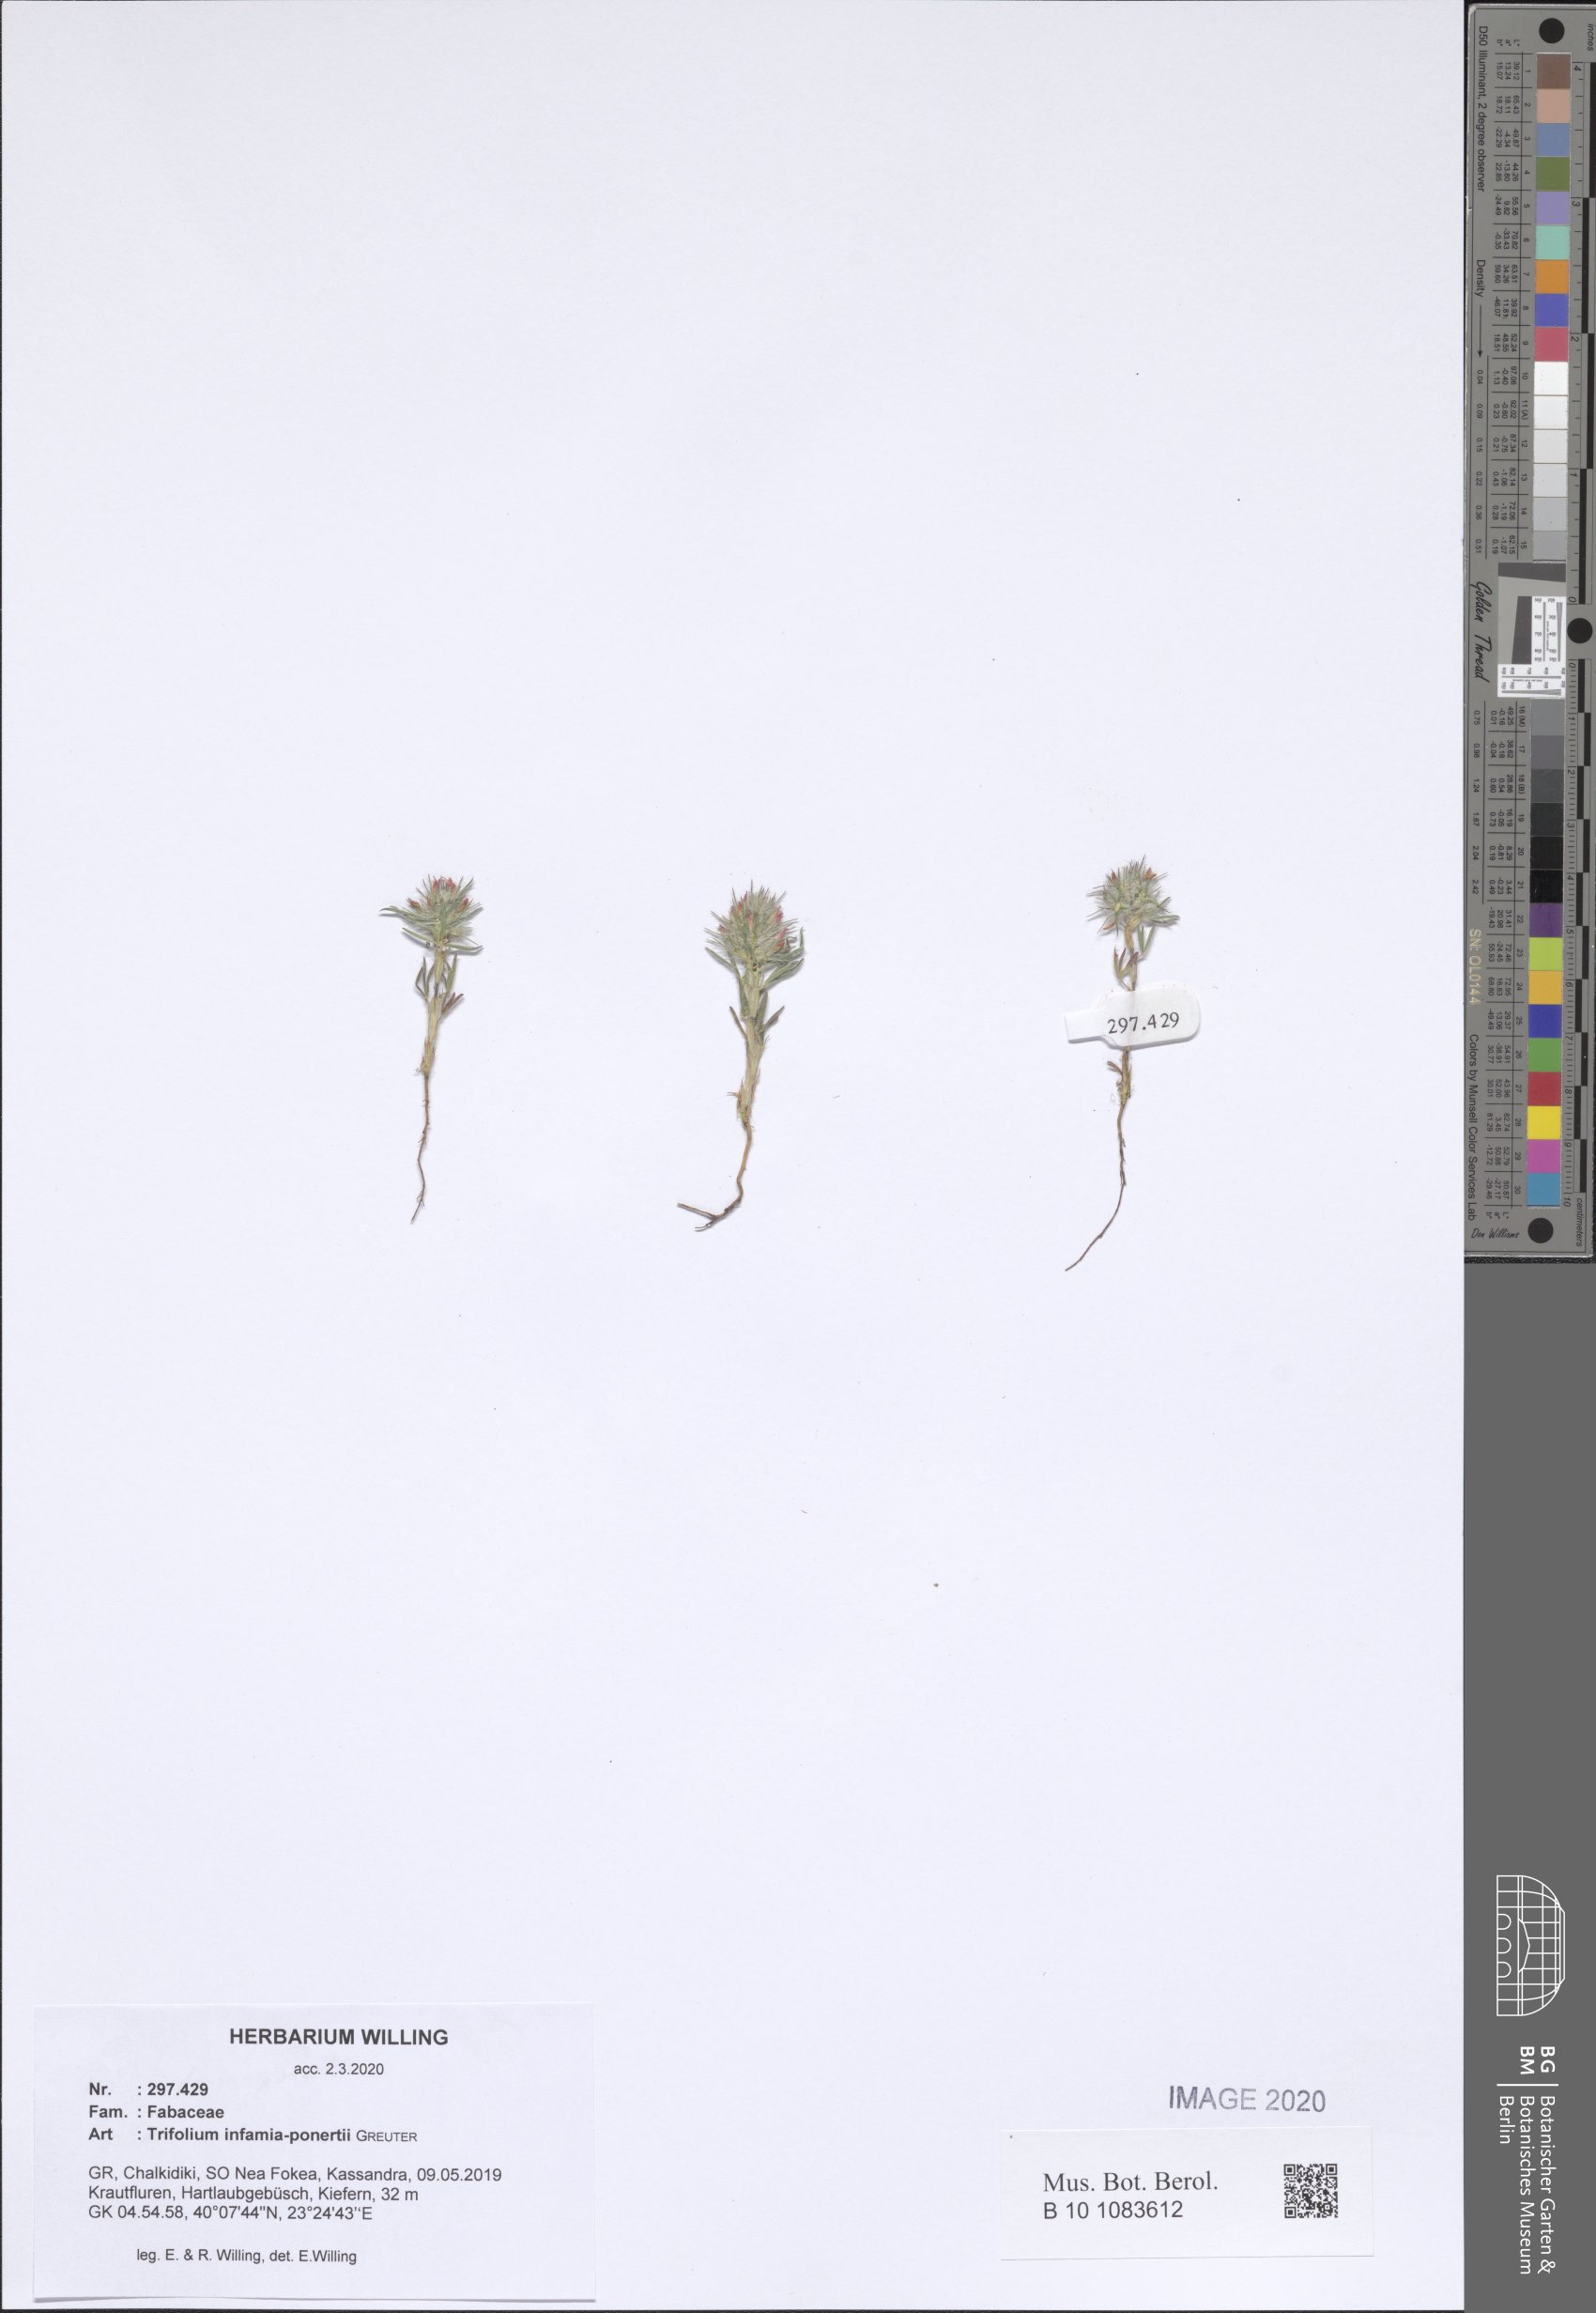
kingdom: Plantae
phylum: Tracheophyta
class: Magnoliopsida
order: Fabales
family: Fabaceae
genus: Trifolium
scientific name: Trifolium infamia-ponertii
